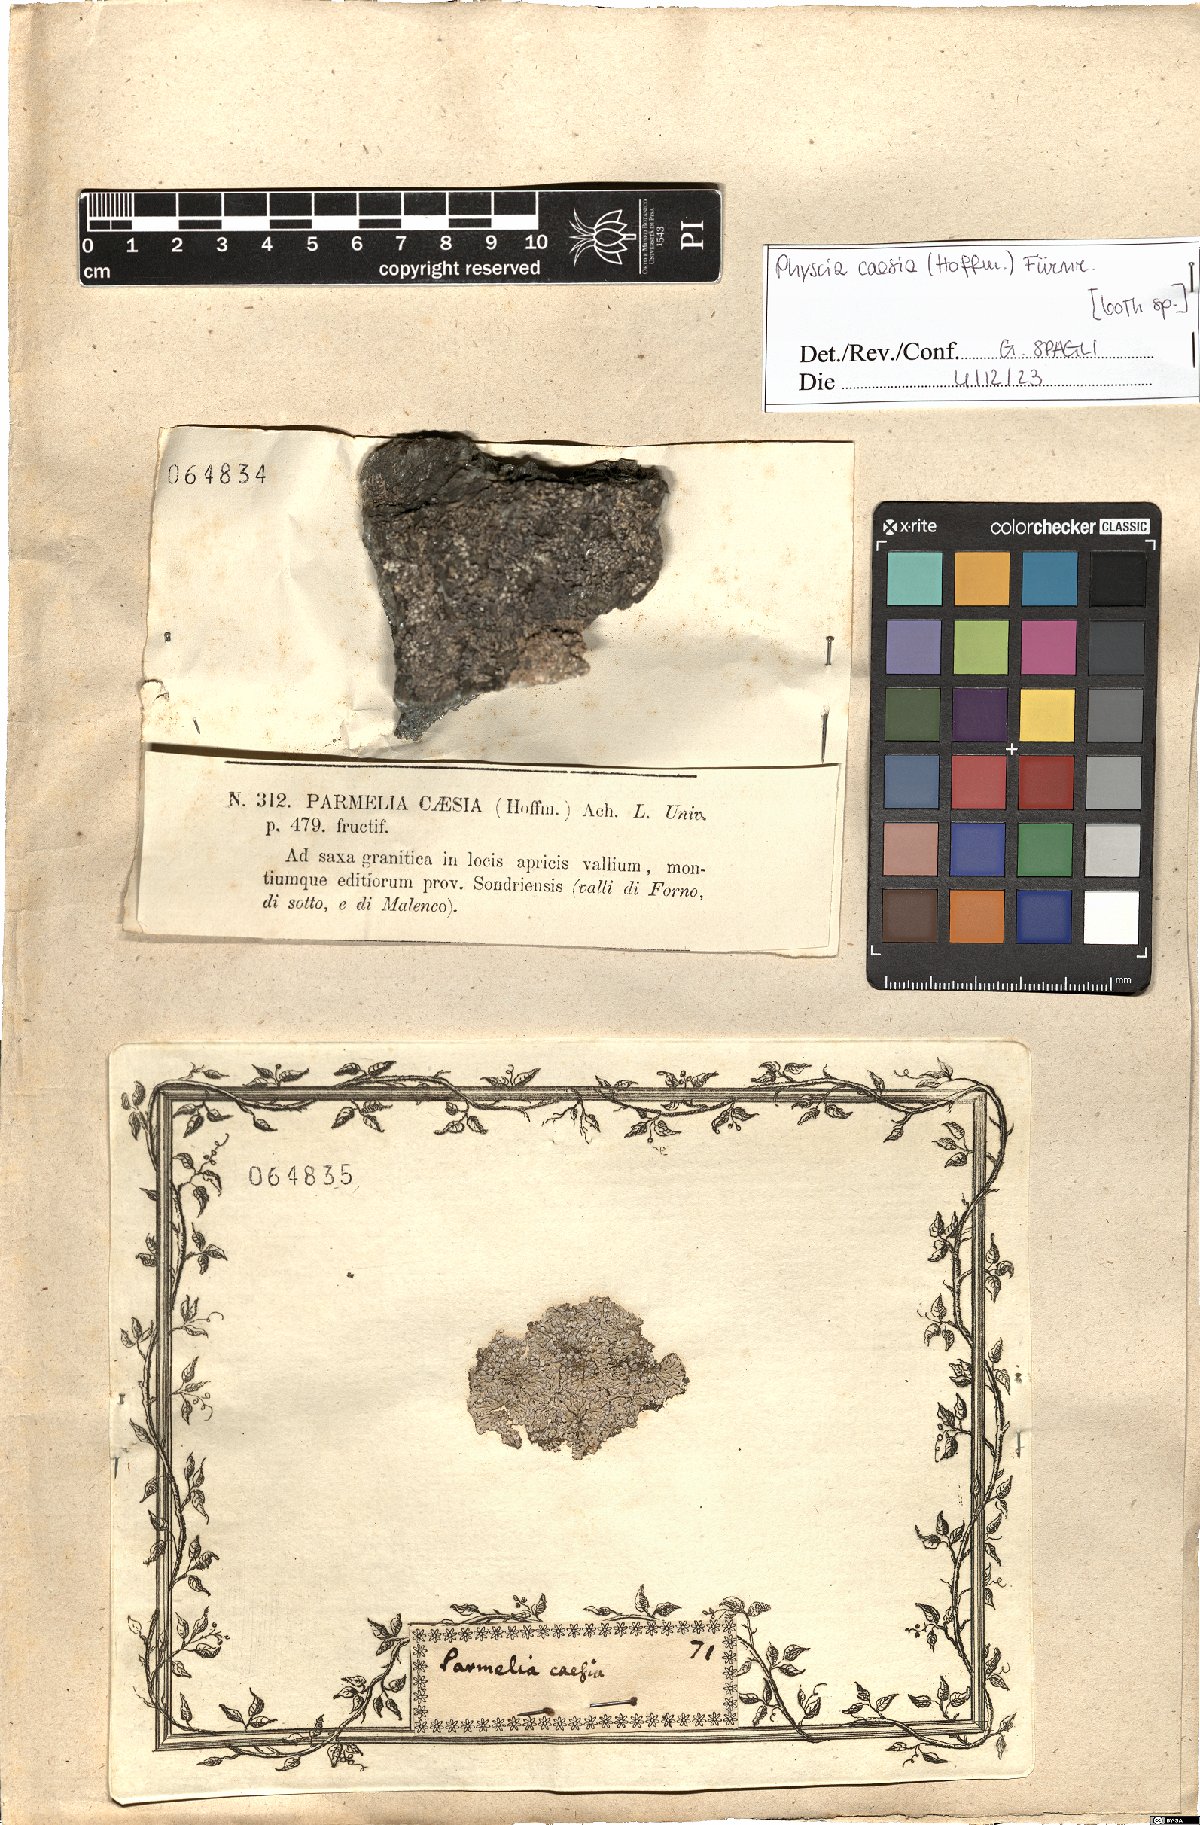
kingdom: Fungi
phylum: Ascomycota
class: Lecanoromycetes
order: Caliciales
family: Physciaceae
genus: Physcia
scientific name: Physcia caesia
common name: Blue-gray rosette lichen
